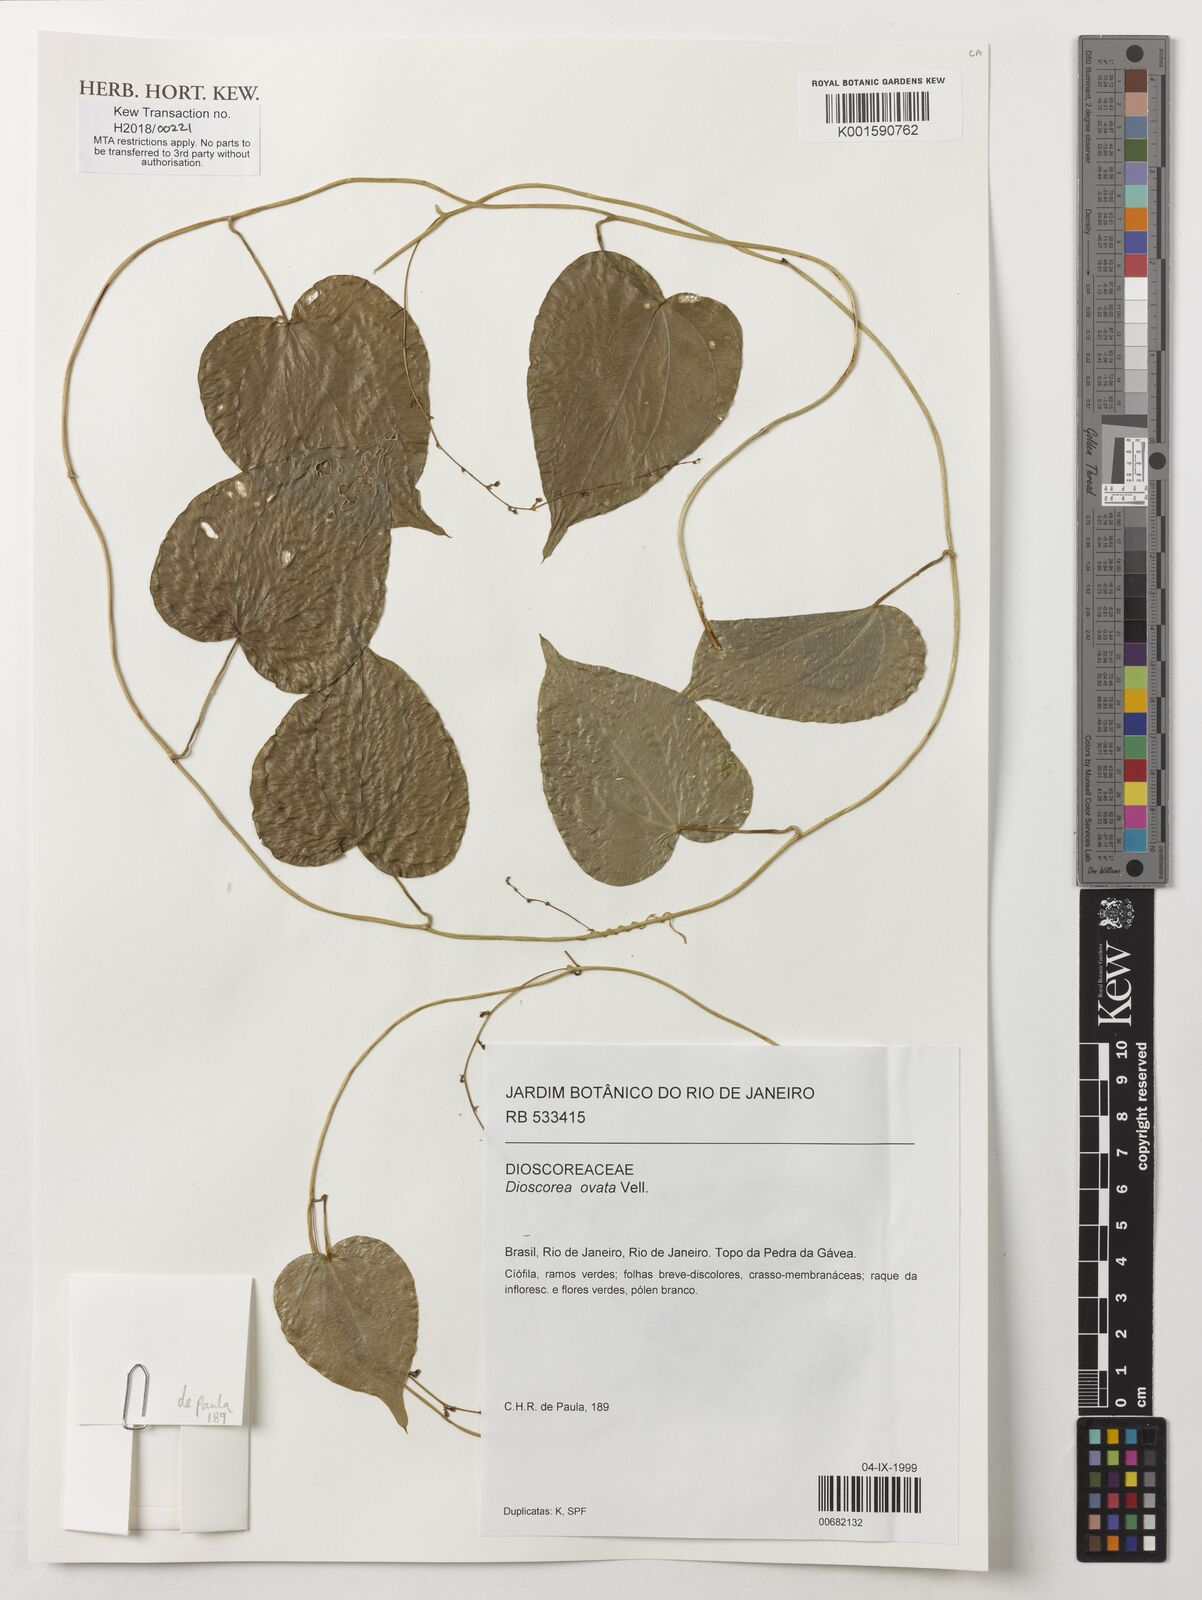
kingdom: Plantae
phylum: Tracheophyta
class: Liliopsida
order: Dioscoreales
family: Dioscoreaceae
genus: Dioscorea
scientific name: Dioscorea ovata
